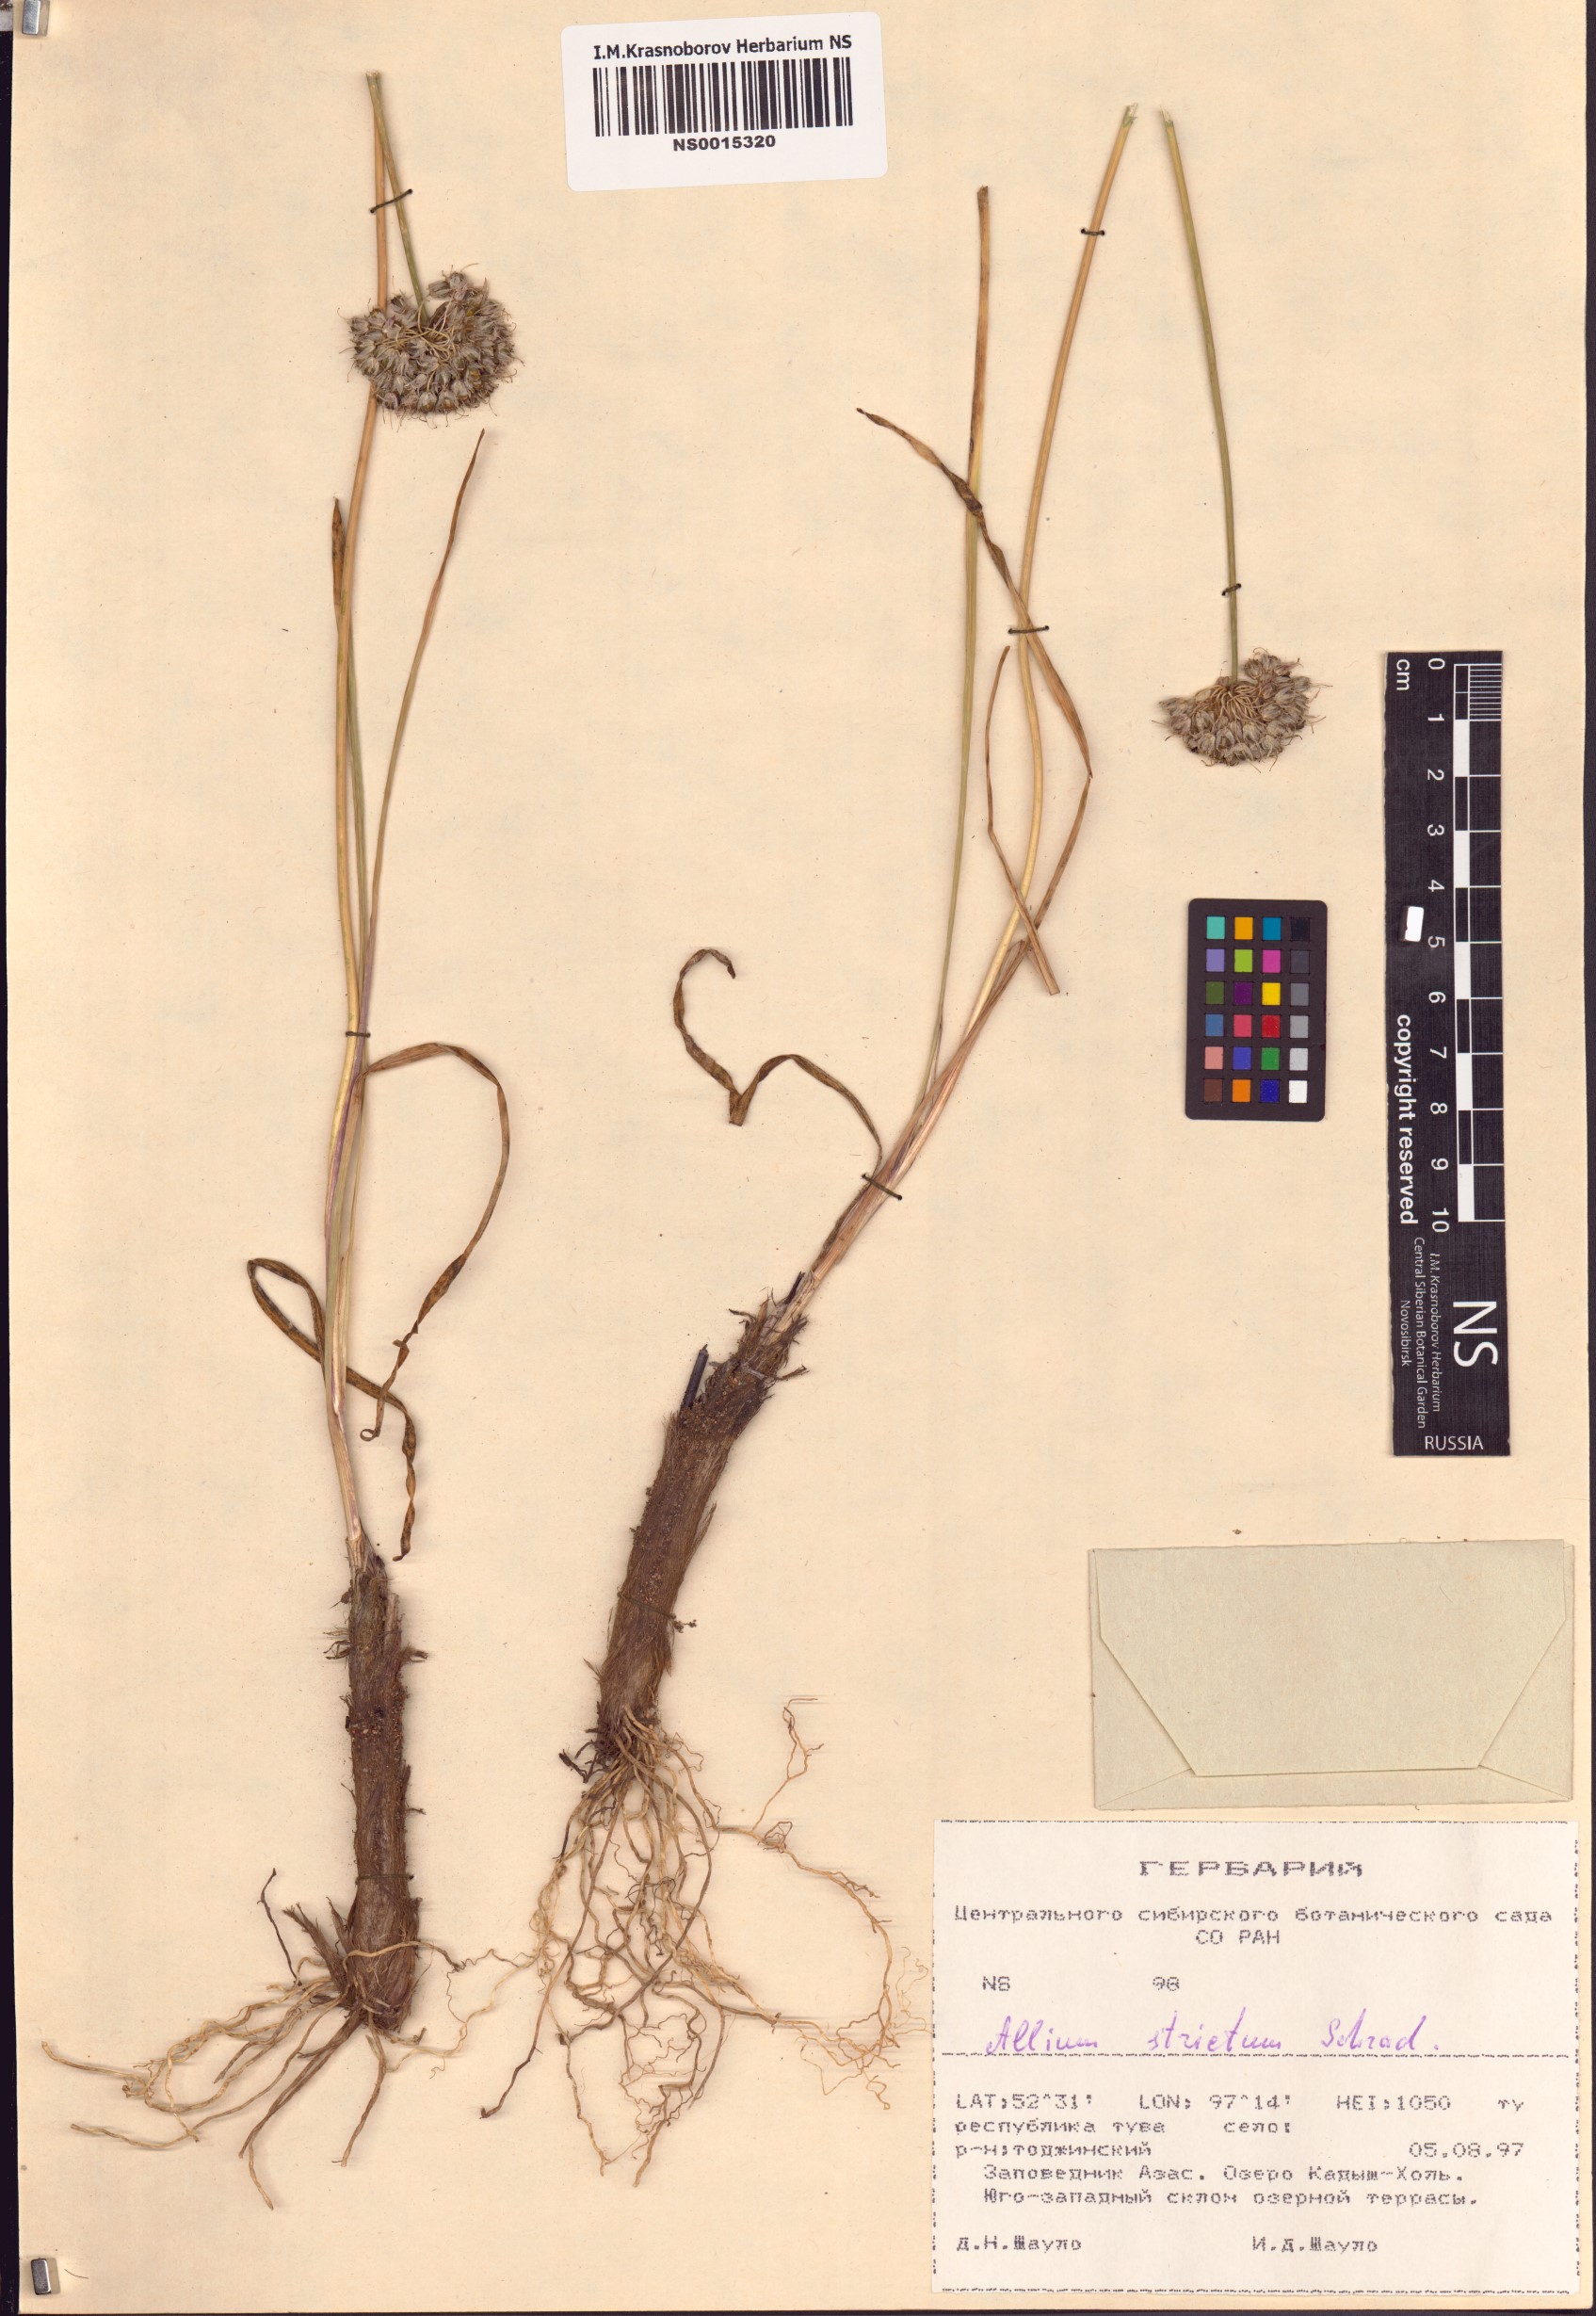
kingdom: Plantae
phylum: Tracheophyta
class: Liliopsida
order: Asparagales
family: Amaryllidaceae
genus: Allium
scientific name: Allium strictum
